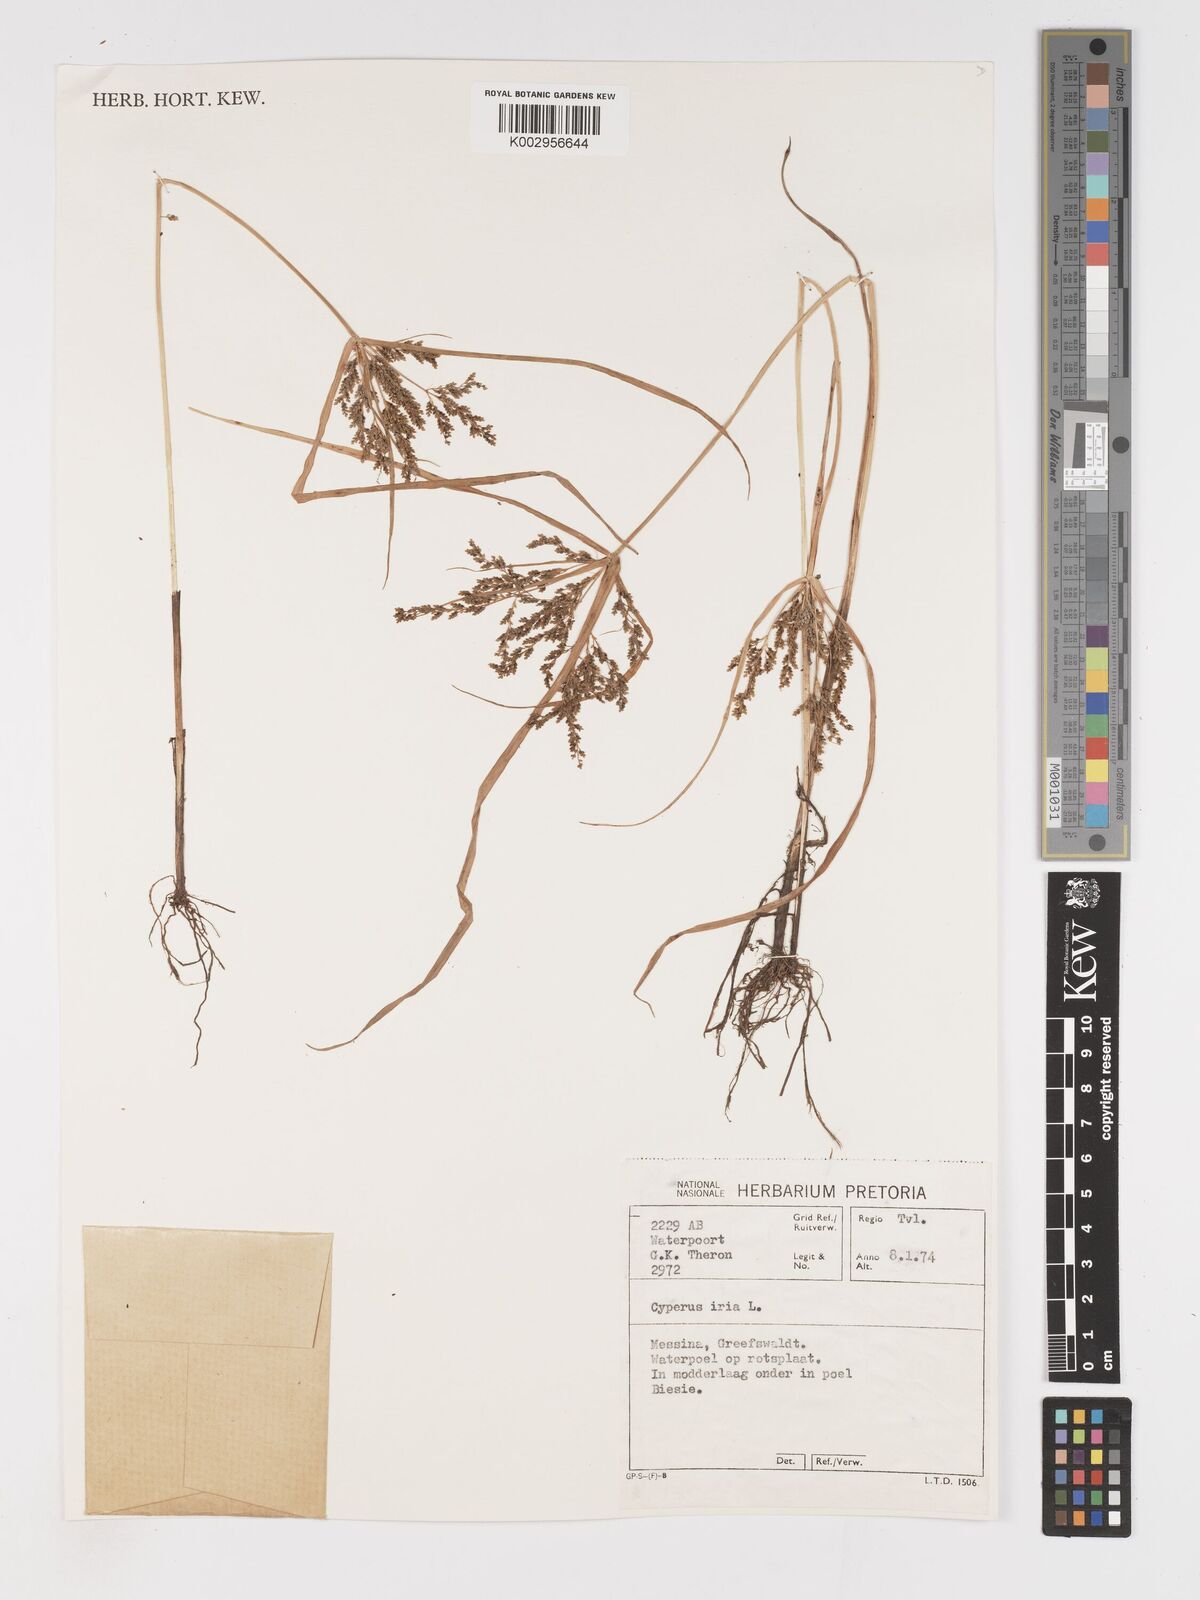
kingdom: Plantae
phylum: Tracheophyta
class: Liliopsida
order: Poales
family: Cyperaceae
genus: Cyperus
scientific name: Cyperus iria
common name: Ricefield flatsedge
